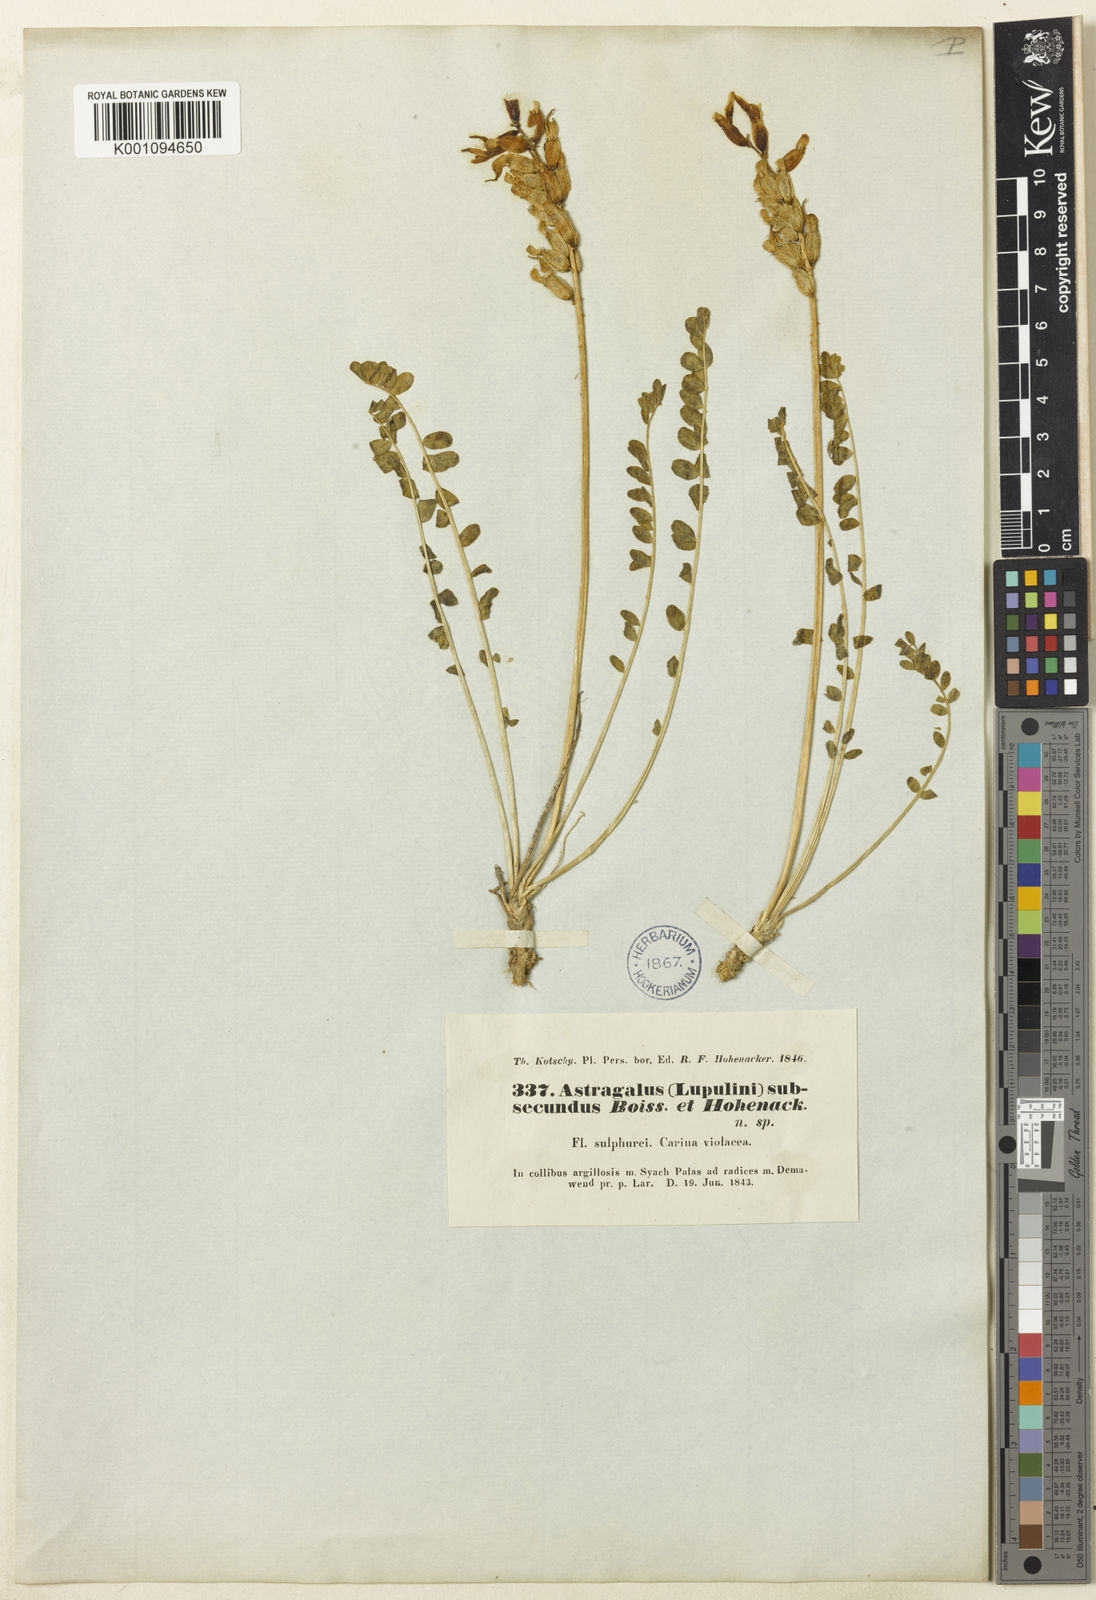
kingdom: Plantae
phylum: Tracheophyta
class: Magnoliopsida
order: Fabales
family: Fabaceae
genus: Astragalus
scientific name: Astragalus
